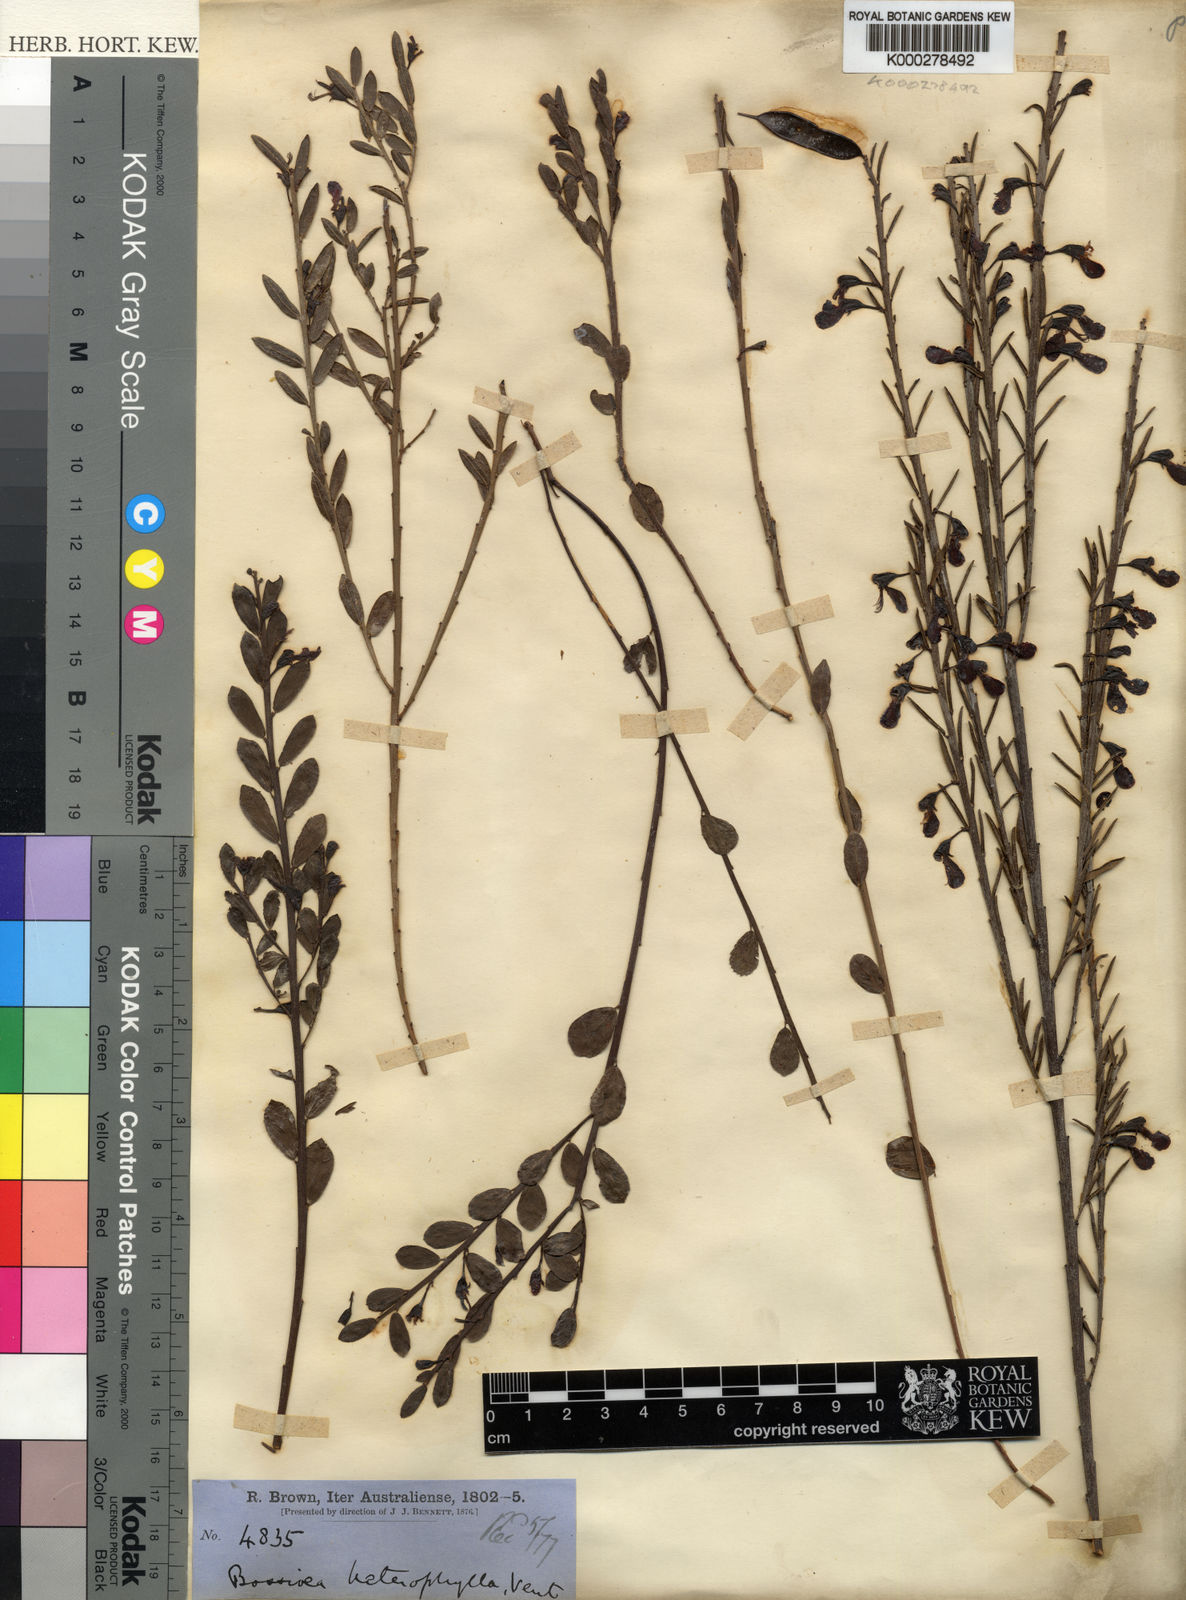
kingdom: Plantae
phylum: Tracheophyta
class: Magnoliopsida
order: Fabales
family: Fabaceae
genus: Bossiaea
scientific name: Bossiaea heterophylla
